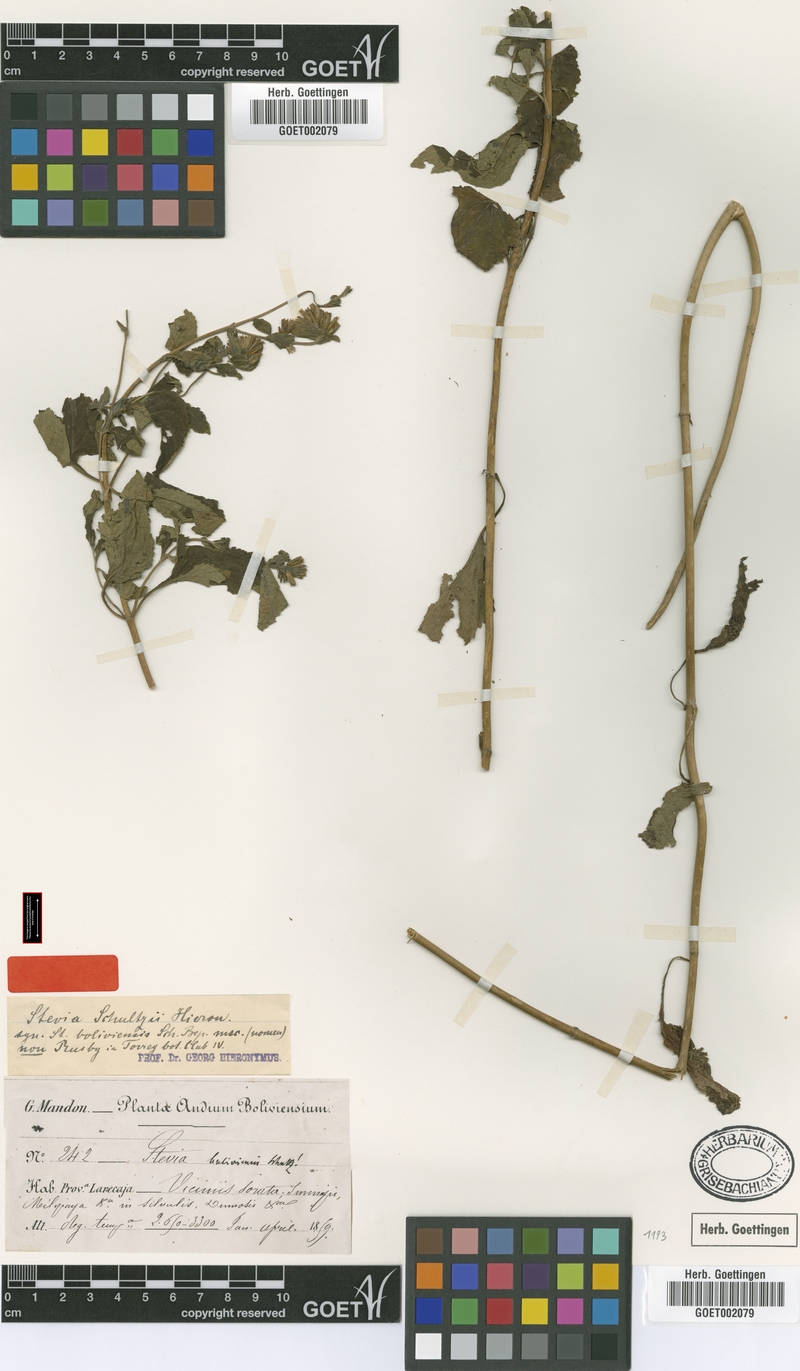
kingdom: Plantae
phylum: Tracheophyta
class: Magnoliopsida
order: Asterales
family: Asteraceae
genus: Stevia
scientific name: Stevia boliviensis
